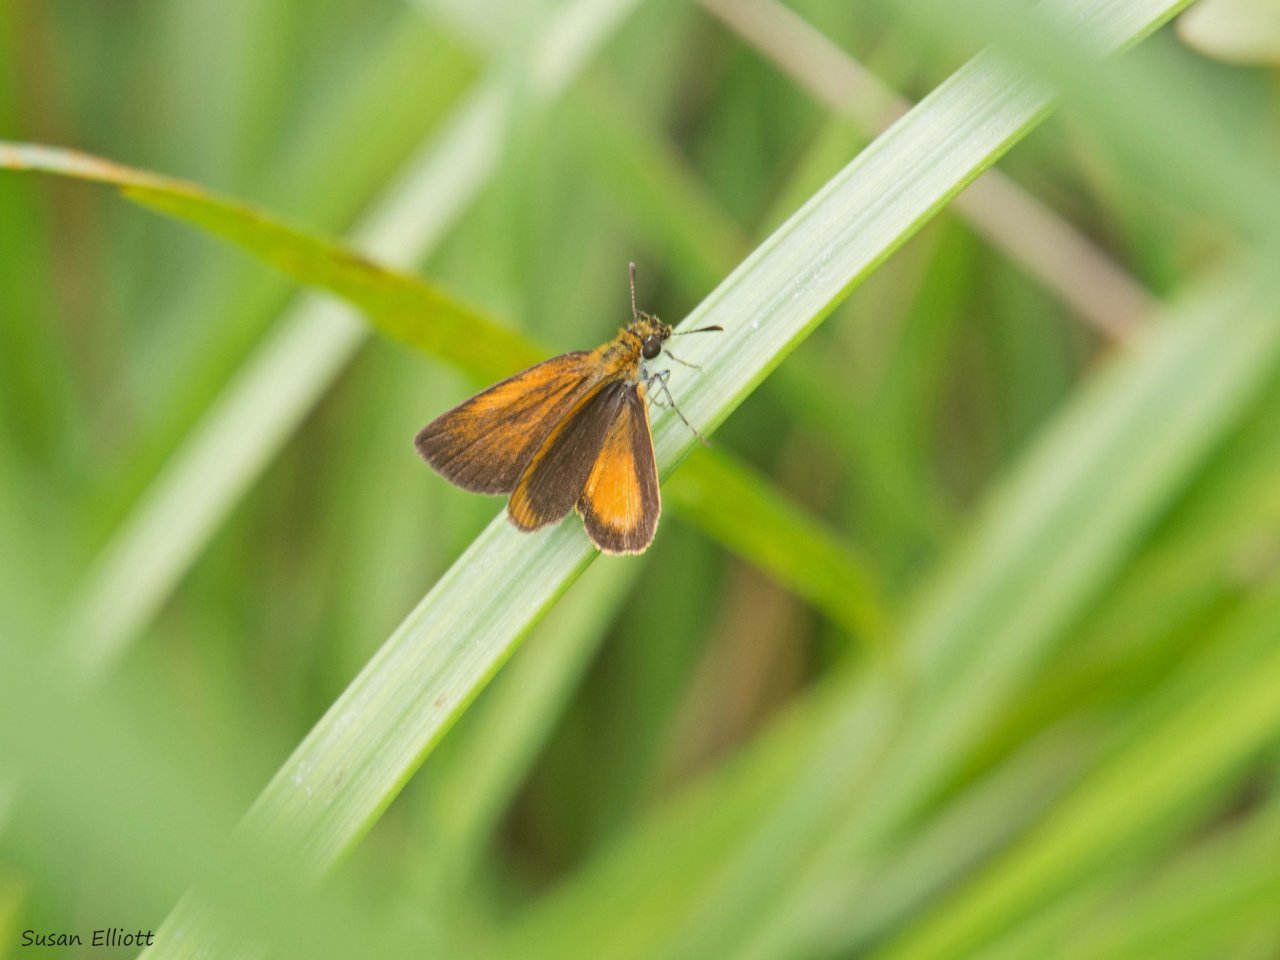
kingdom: Animalia
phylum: Arthropoda
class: Insecta
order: Lepidoptera
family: Hesperiidae
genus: Ancyloxypha
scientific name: Ancyloxypha numitor
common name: Least Skipper
